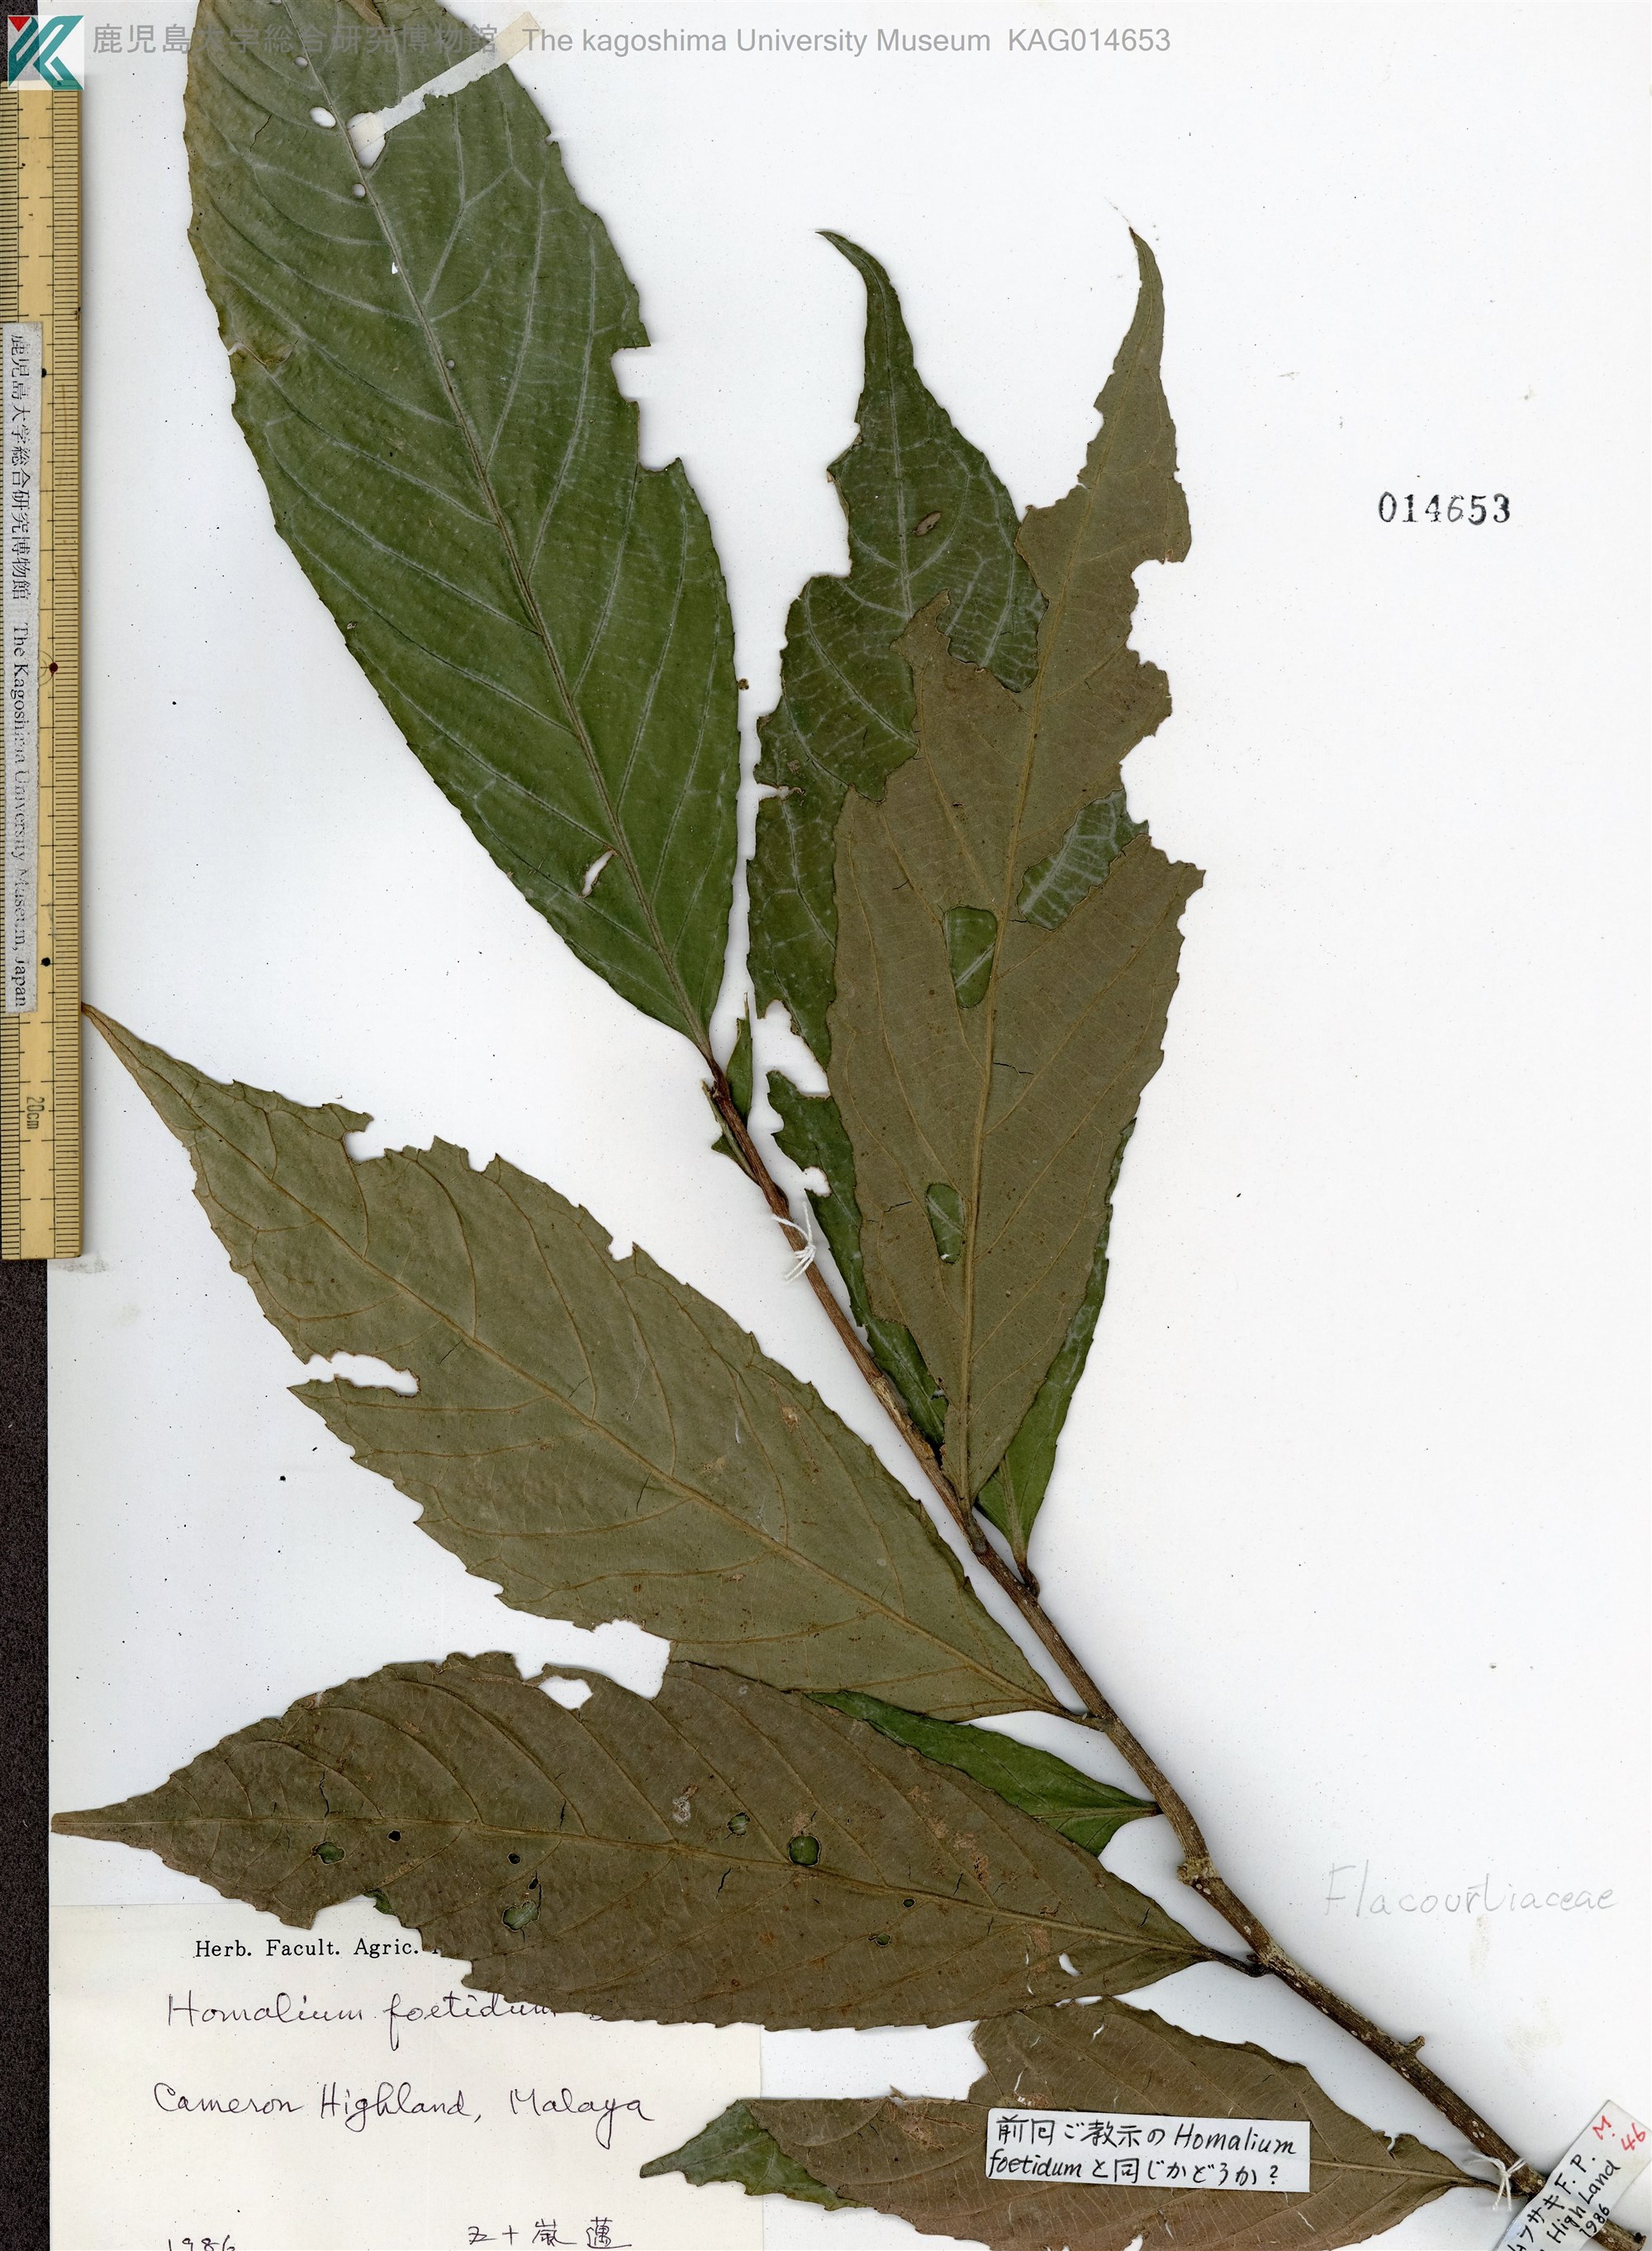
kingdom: Plantae
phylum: Tracheophyta
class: Magnoliopsida
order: Malpighiales
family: Salicaceae
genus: Homalium
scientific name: Homalium foetidum
